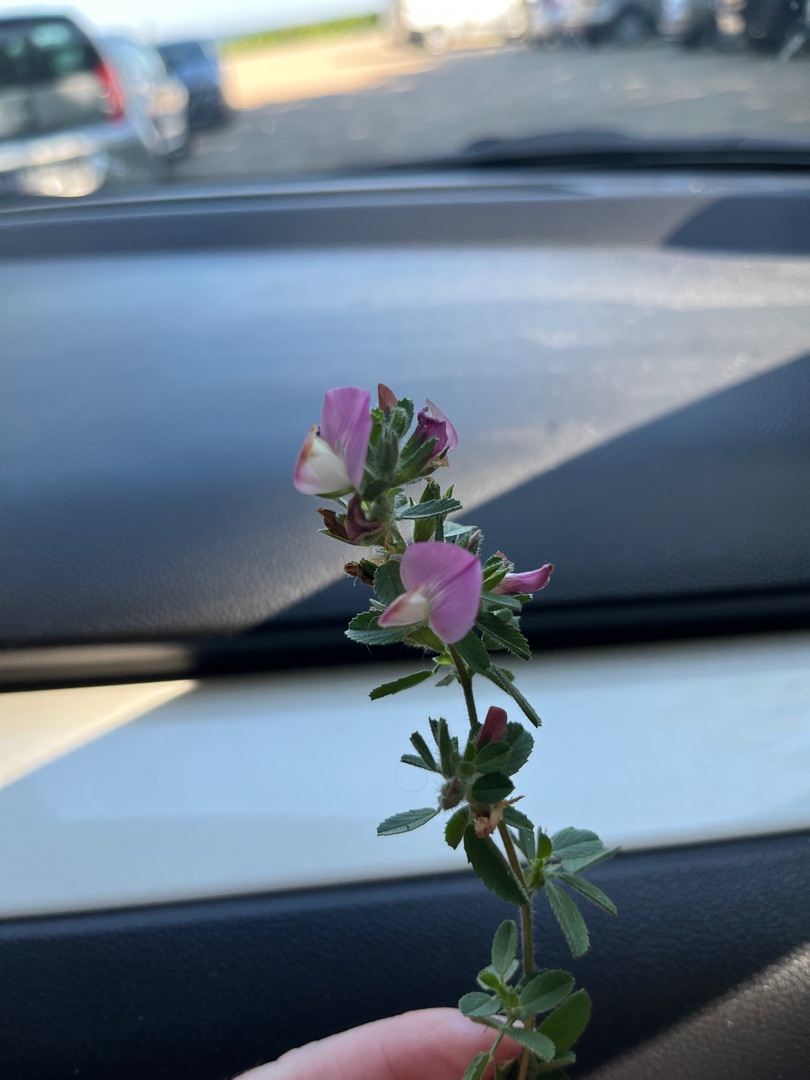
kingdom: Plantae
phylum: Tracheophyta
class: Magnoliopsida
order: Fabales
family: Fabaceae
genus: Ononis
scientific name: Ononis spinosa
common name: Mark-krageklo
